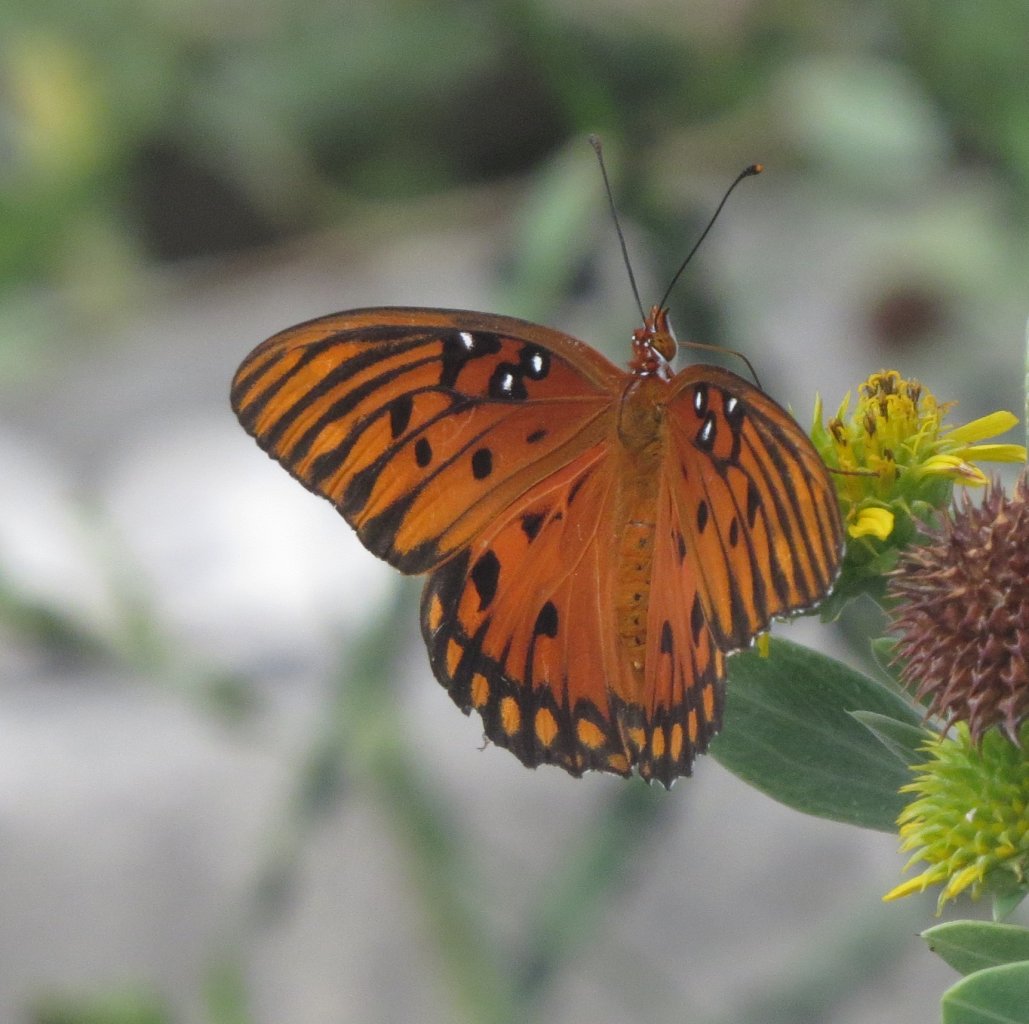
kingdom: Animalia
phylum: Arthropoda
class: Insecta
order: Lepidoptera
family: Nymphalidae
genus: Dione
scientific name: Dione vanillae
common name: Gulf Fritillary
